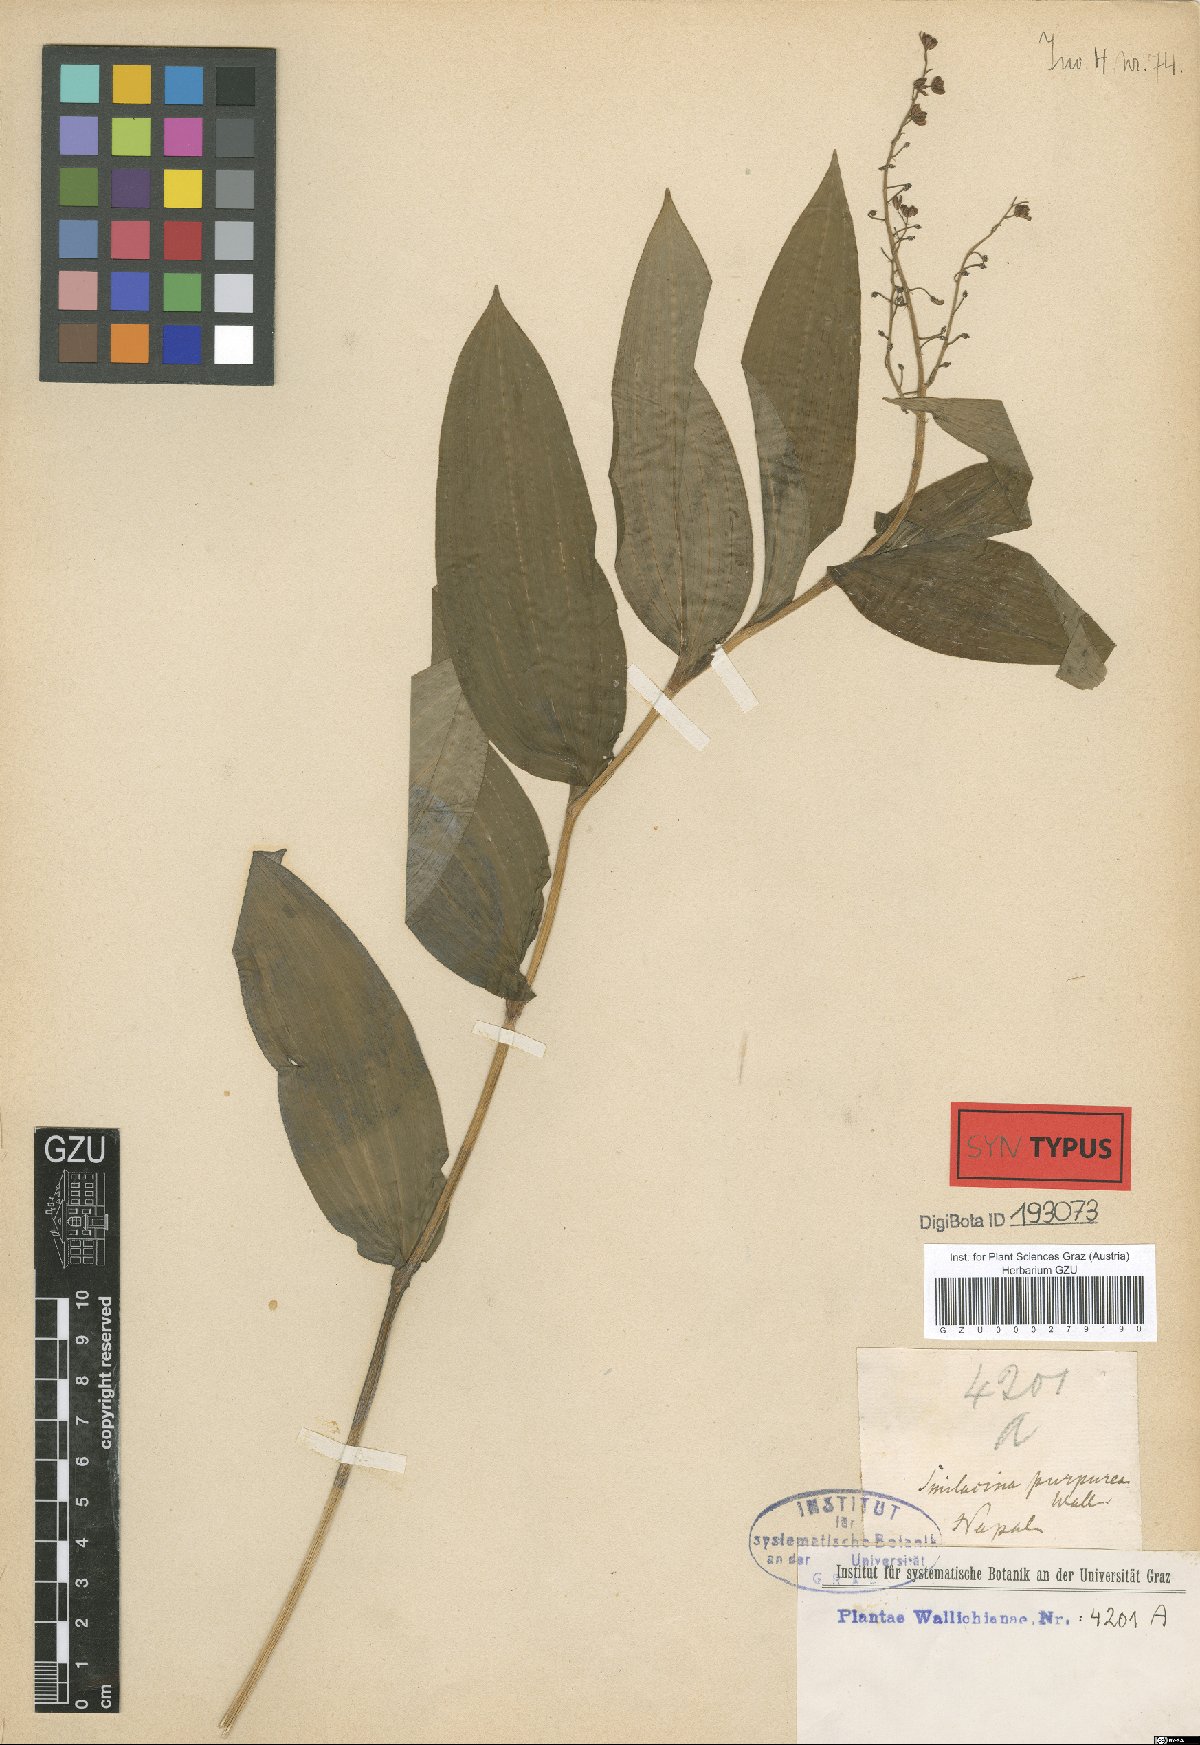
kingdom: Plantae
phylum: Tracheophyta
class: Liliopsida
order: Asparagales
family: Asparagaceae
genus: Maianthemum
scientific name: Maianthemum purpureum
